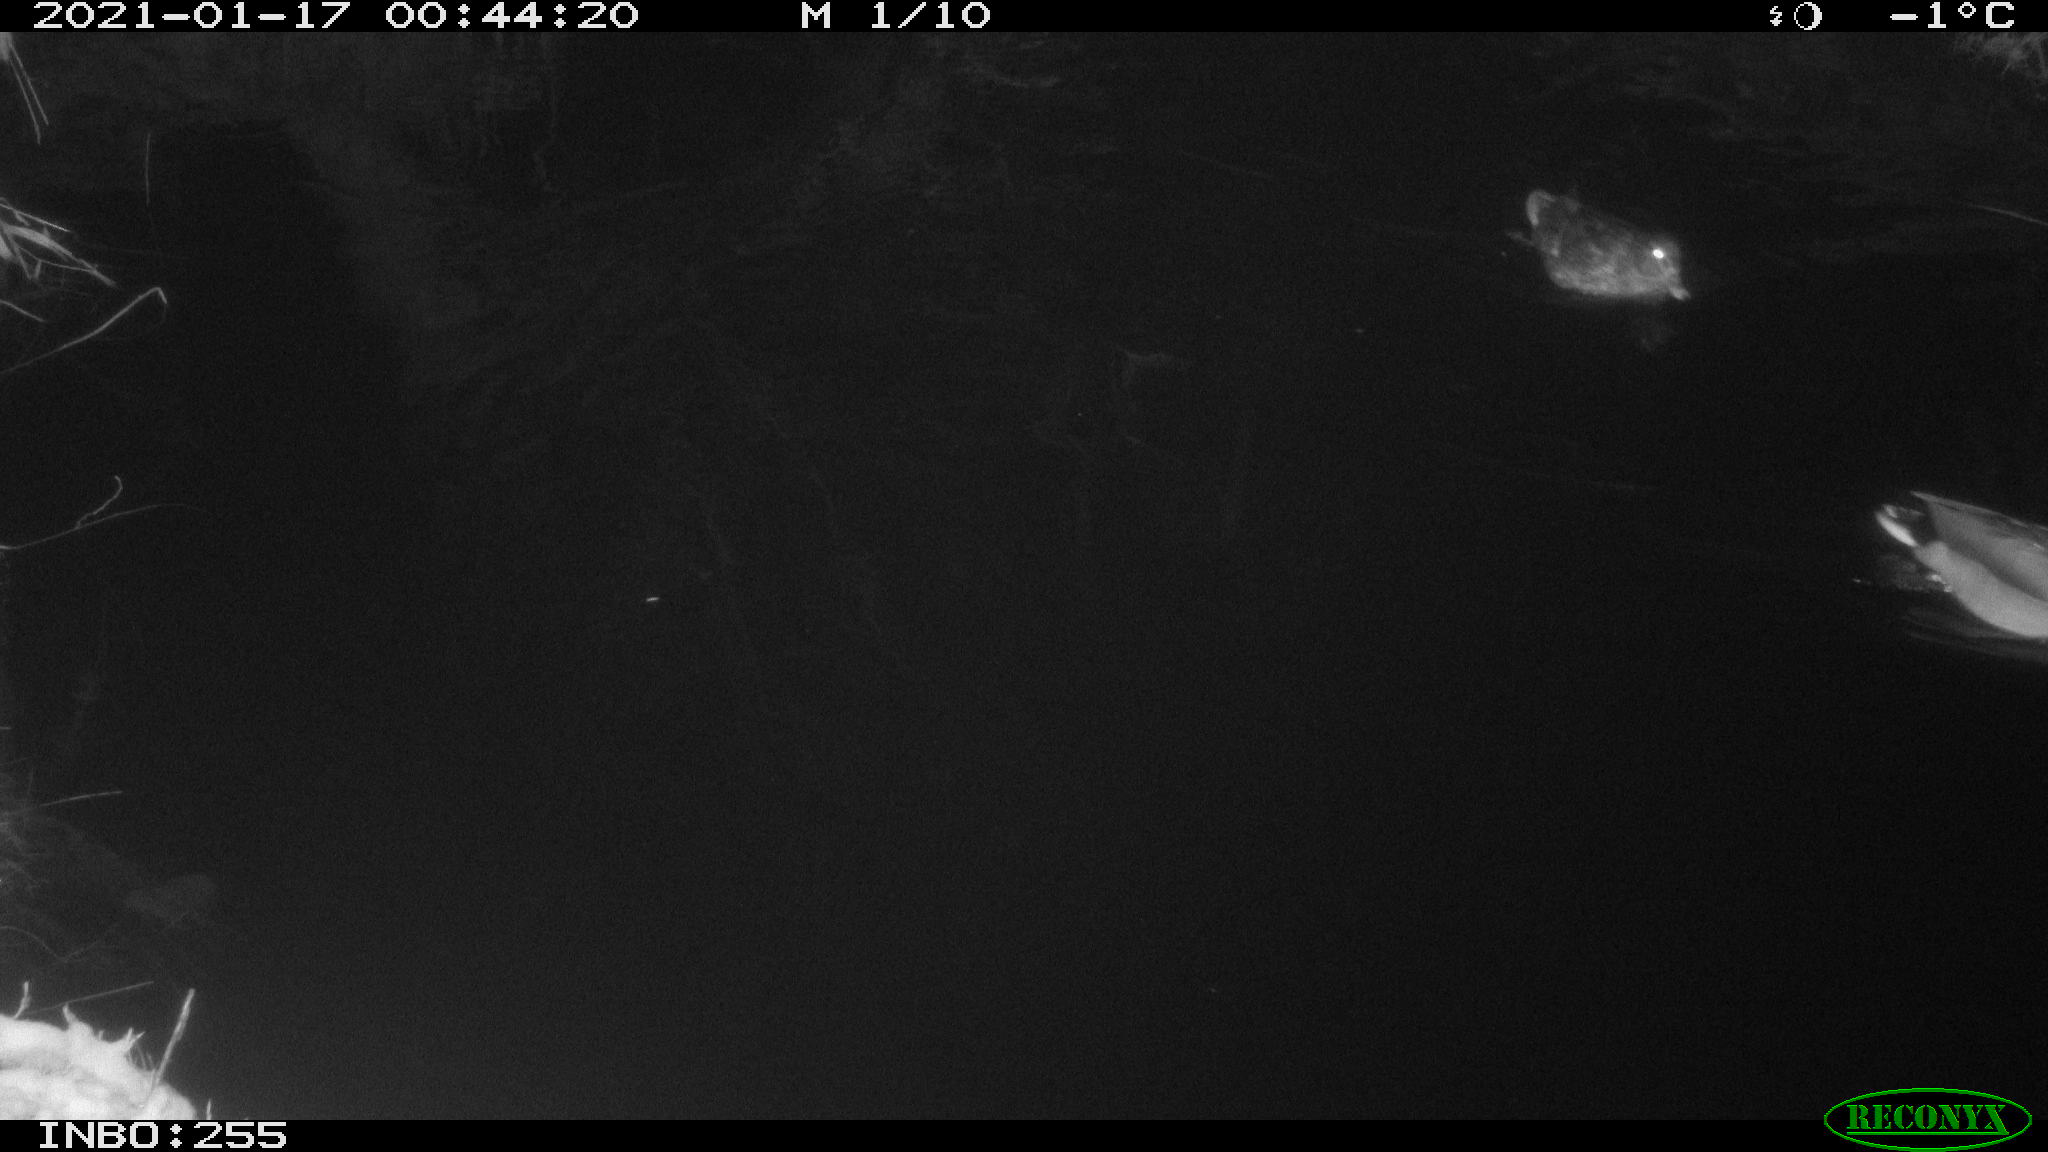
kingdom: Animalia
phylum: Chordata
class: Aves
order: Anseriformes
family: Anatidae
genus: Anas
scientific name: Anas platyrhynchos
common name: Mallard
